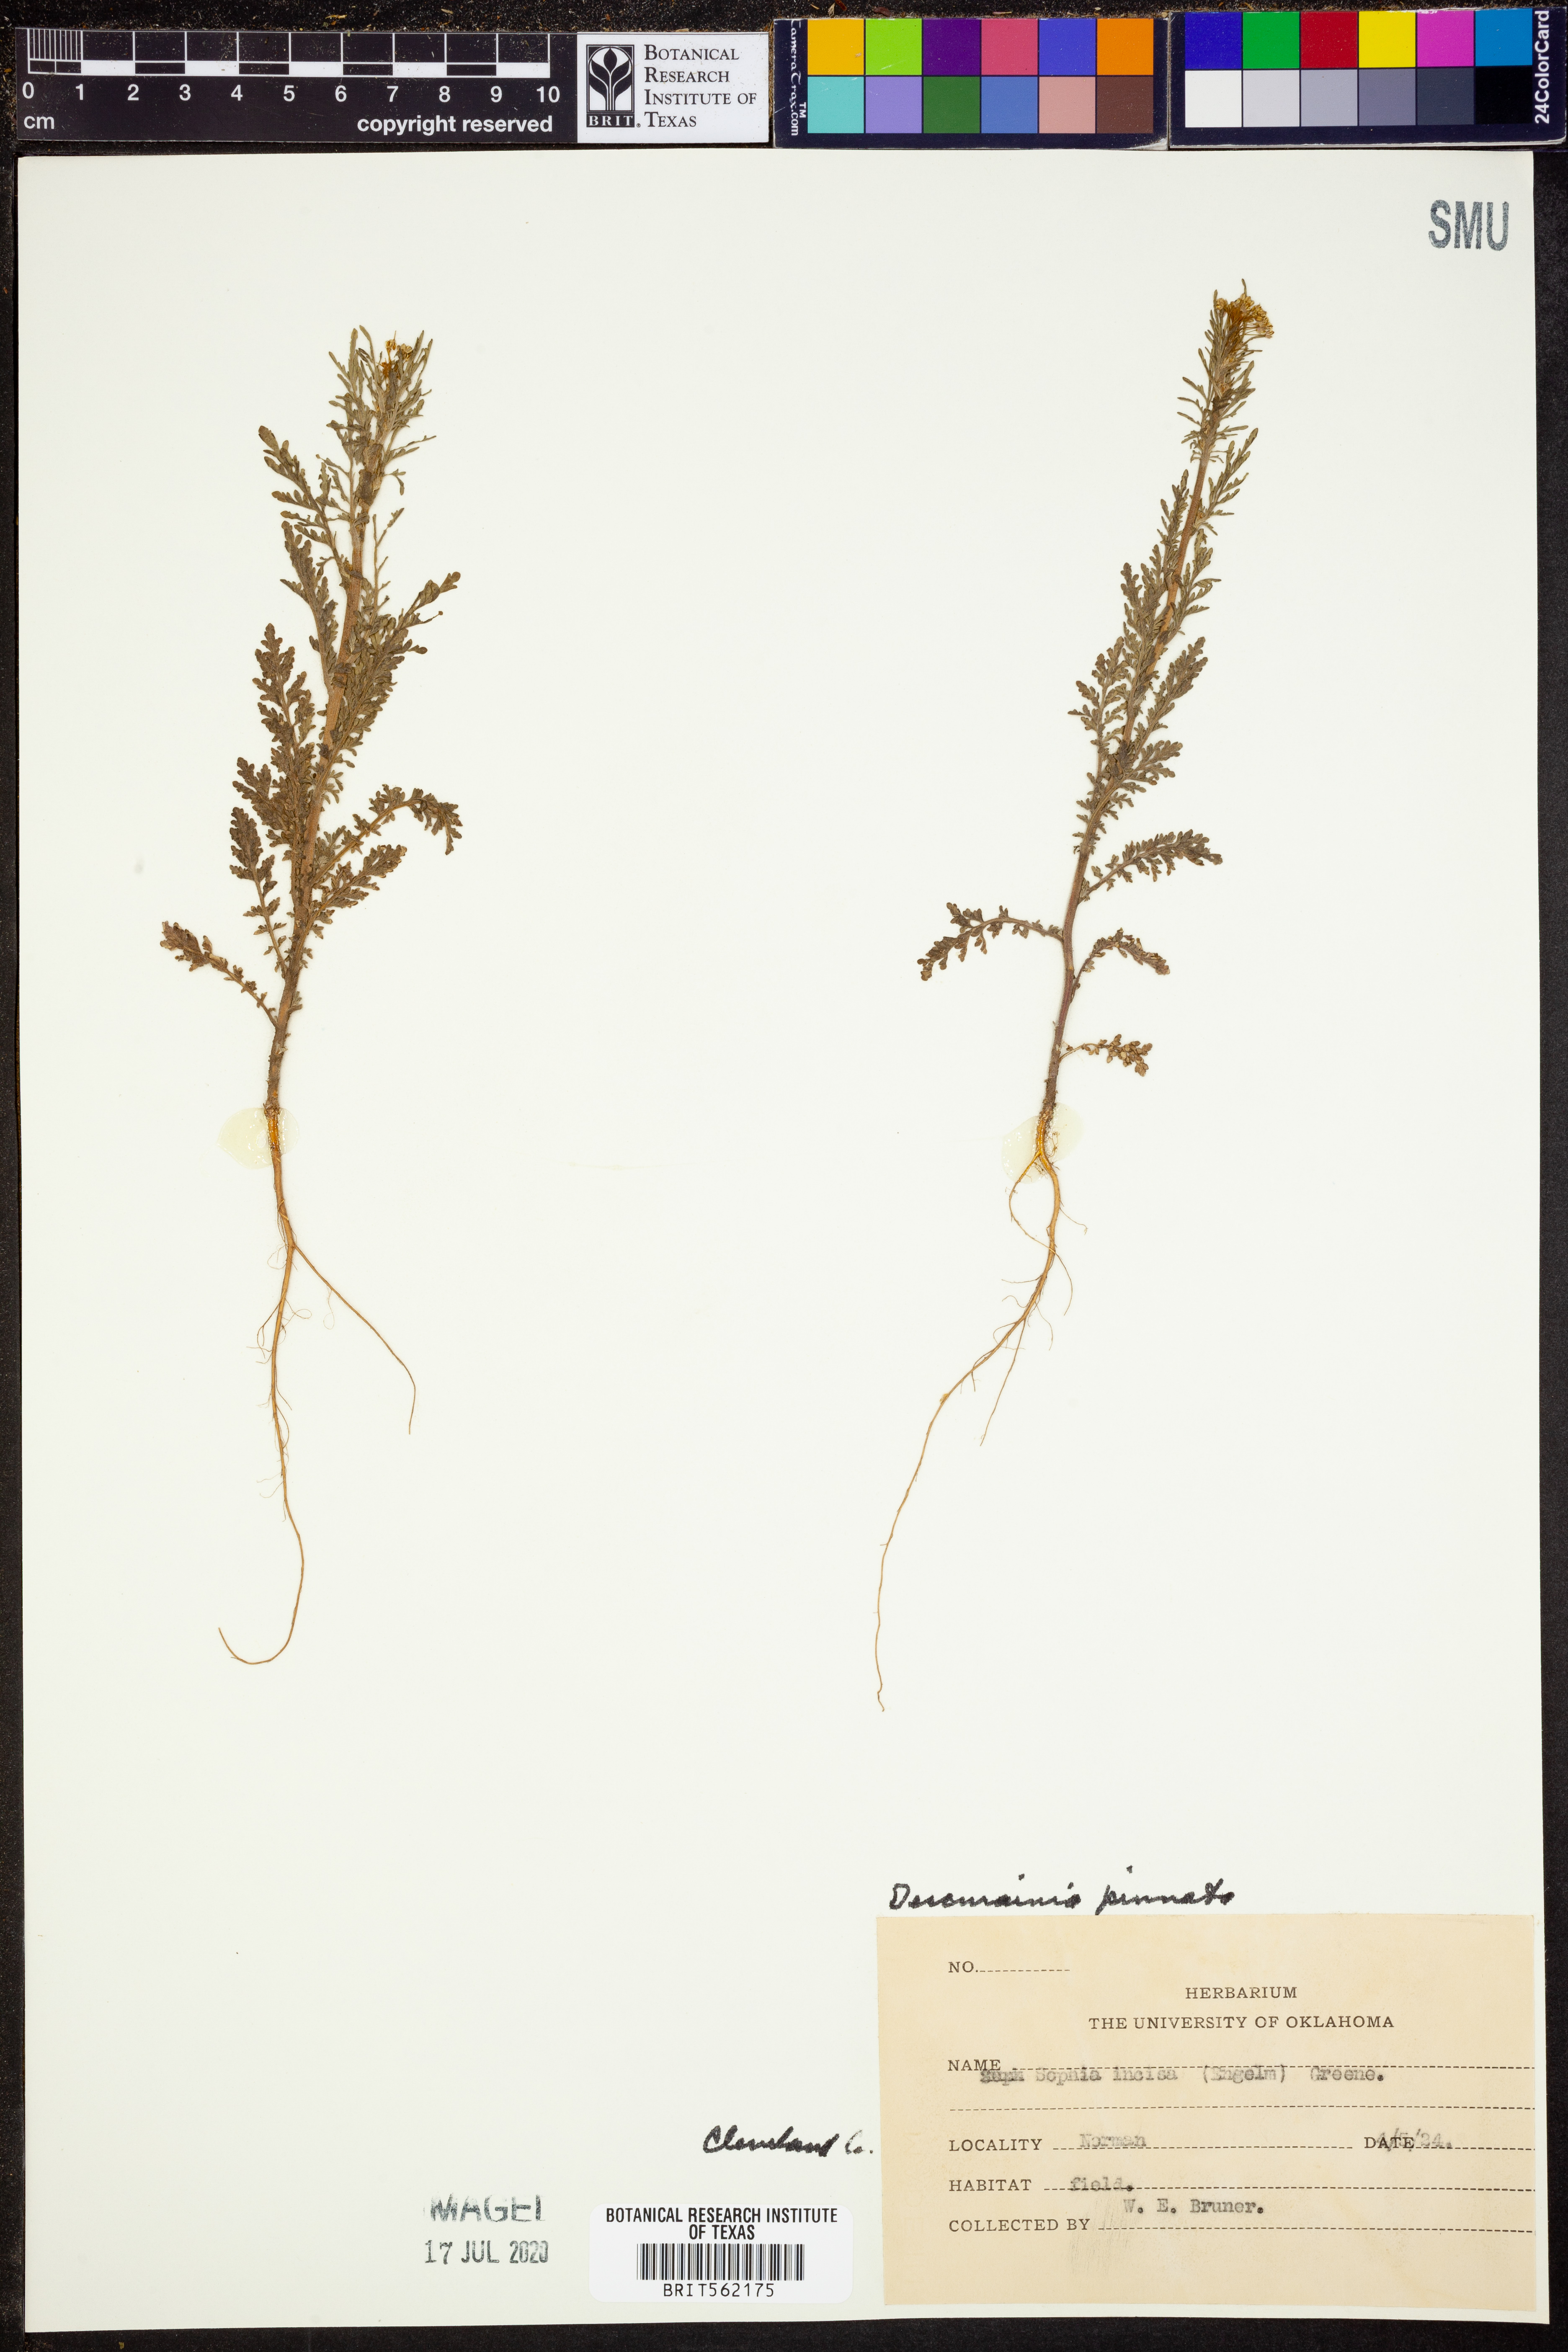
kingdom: Plantae
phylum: Tracheophyta
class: Magnoliopsida
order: Brassicales
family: Brassicaceae
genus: Descurainia
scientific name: Descurainia pinnata
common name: Western tansy mustard
